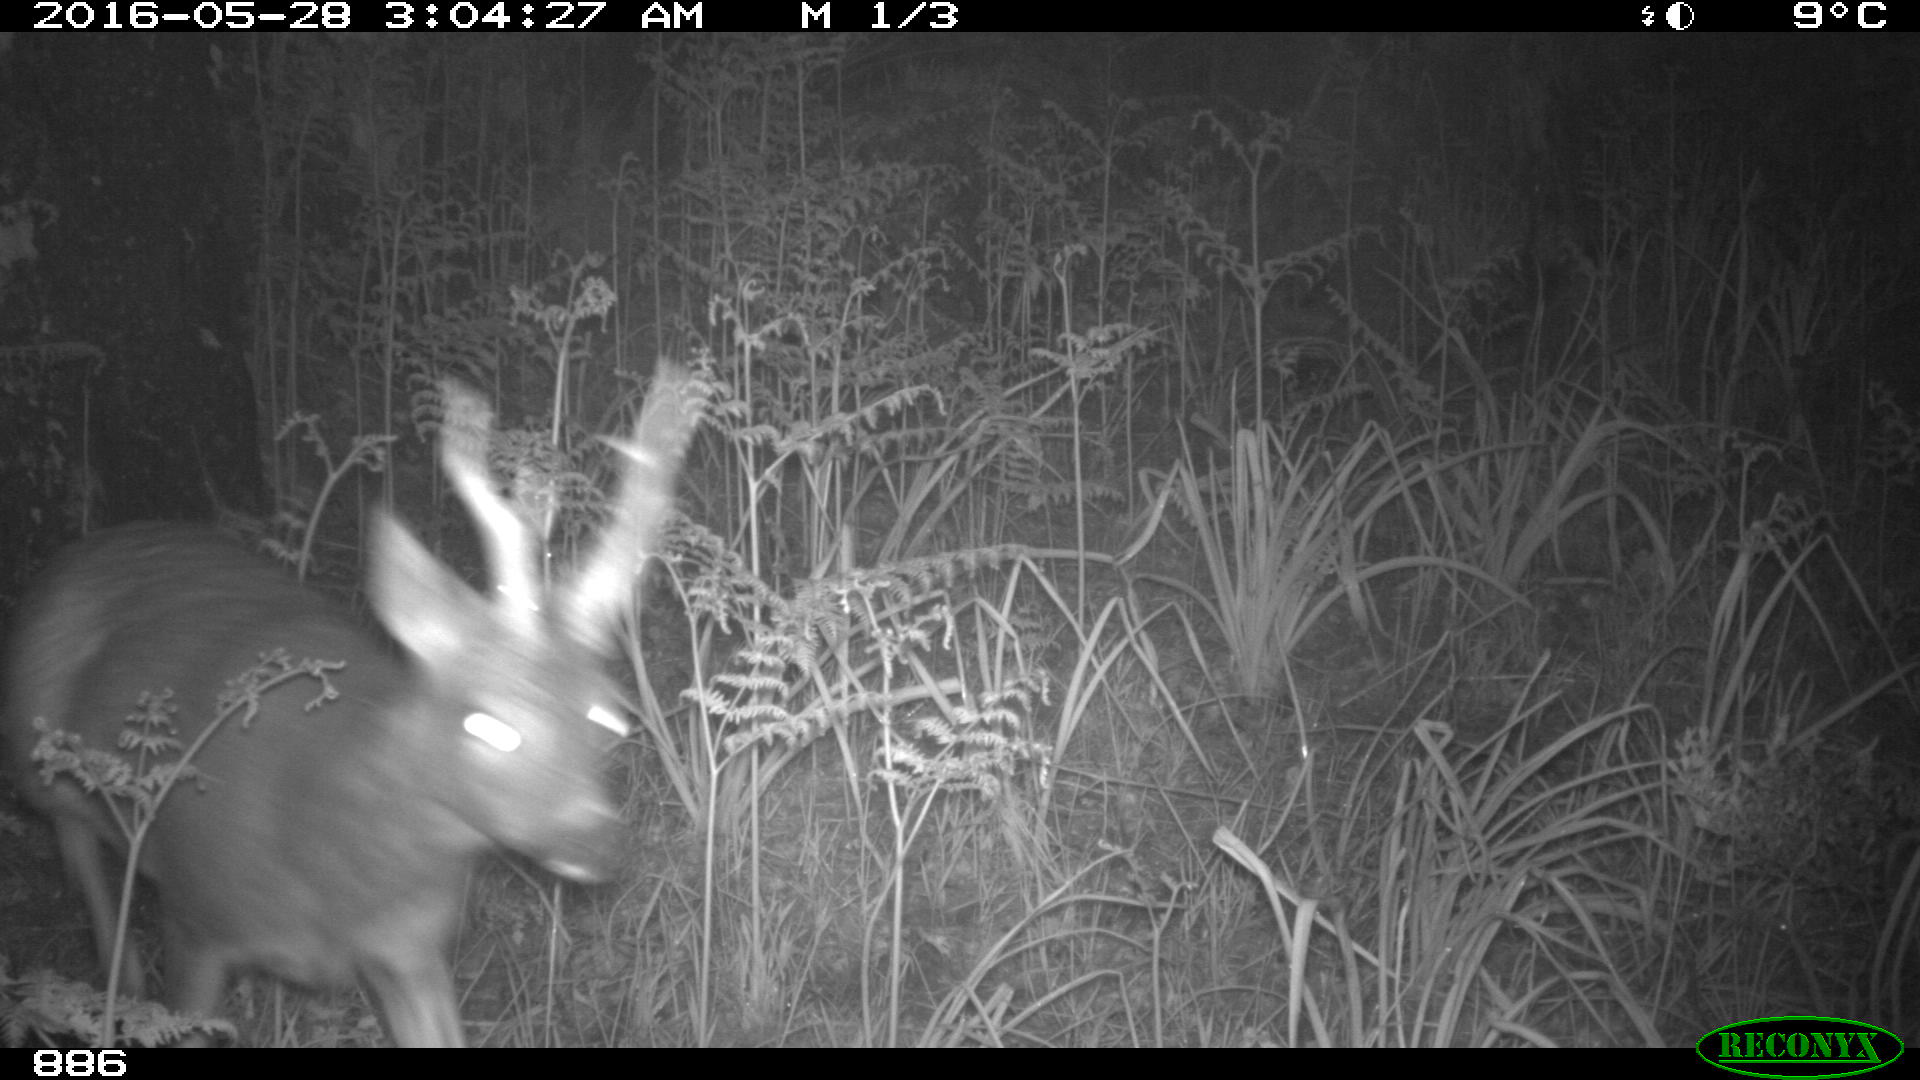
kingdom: Animalia
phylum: Chordata
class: Mammalia
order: Artiodactyla
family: Cervidae
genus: Capreolus
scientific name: Capreolus capreolus
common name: Western roe deer
